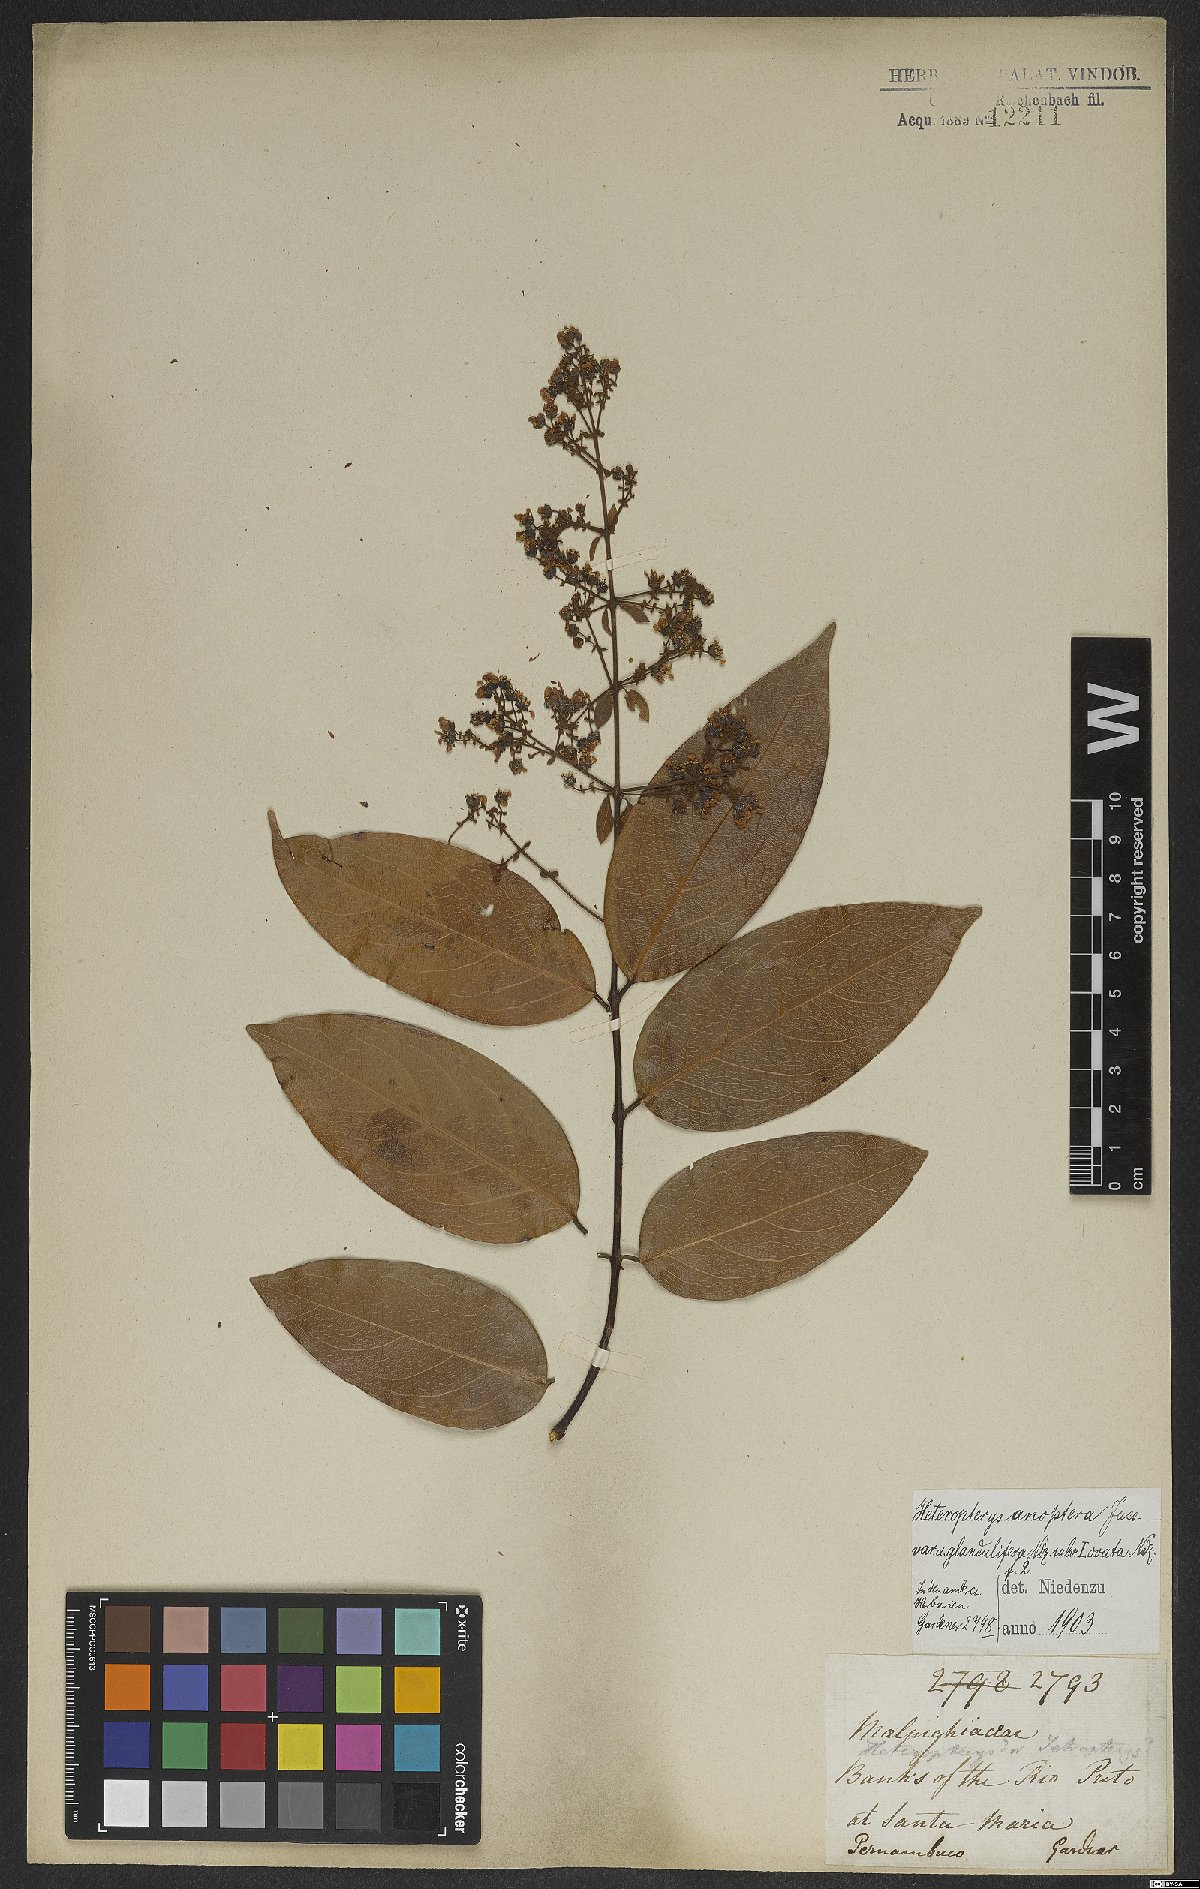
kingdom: Plantae
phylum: Tracheophyta
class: Magnoliopsida
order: Malpighiales
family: Malpighiaceae
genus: Heteropterys
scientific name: Heteropterys anoptera
